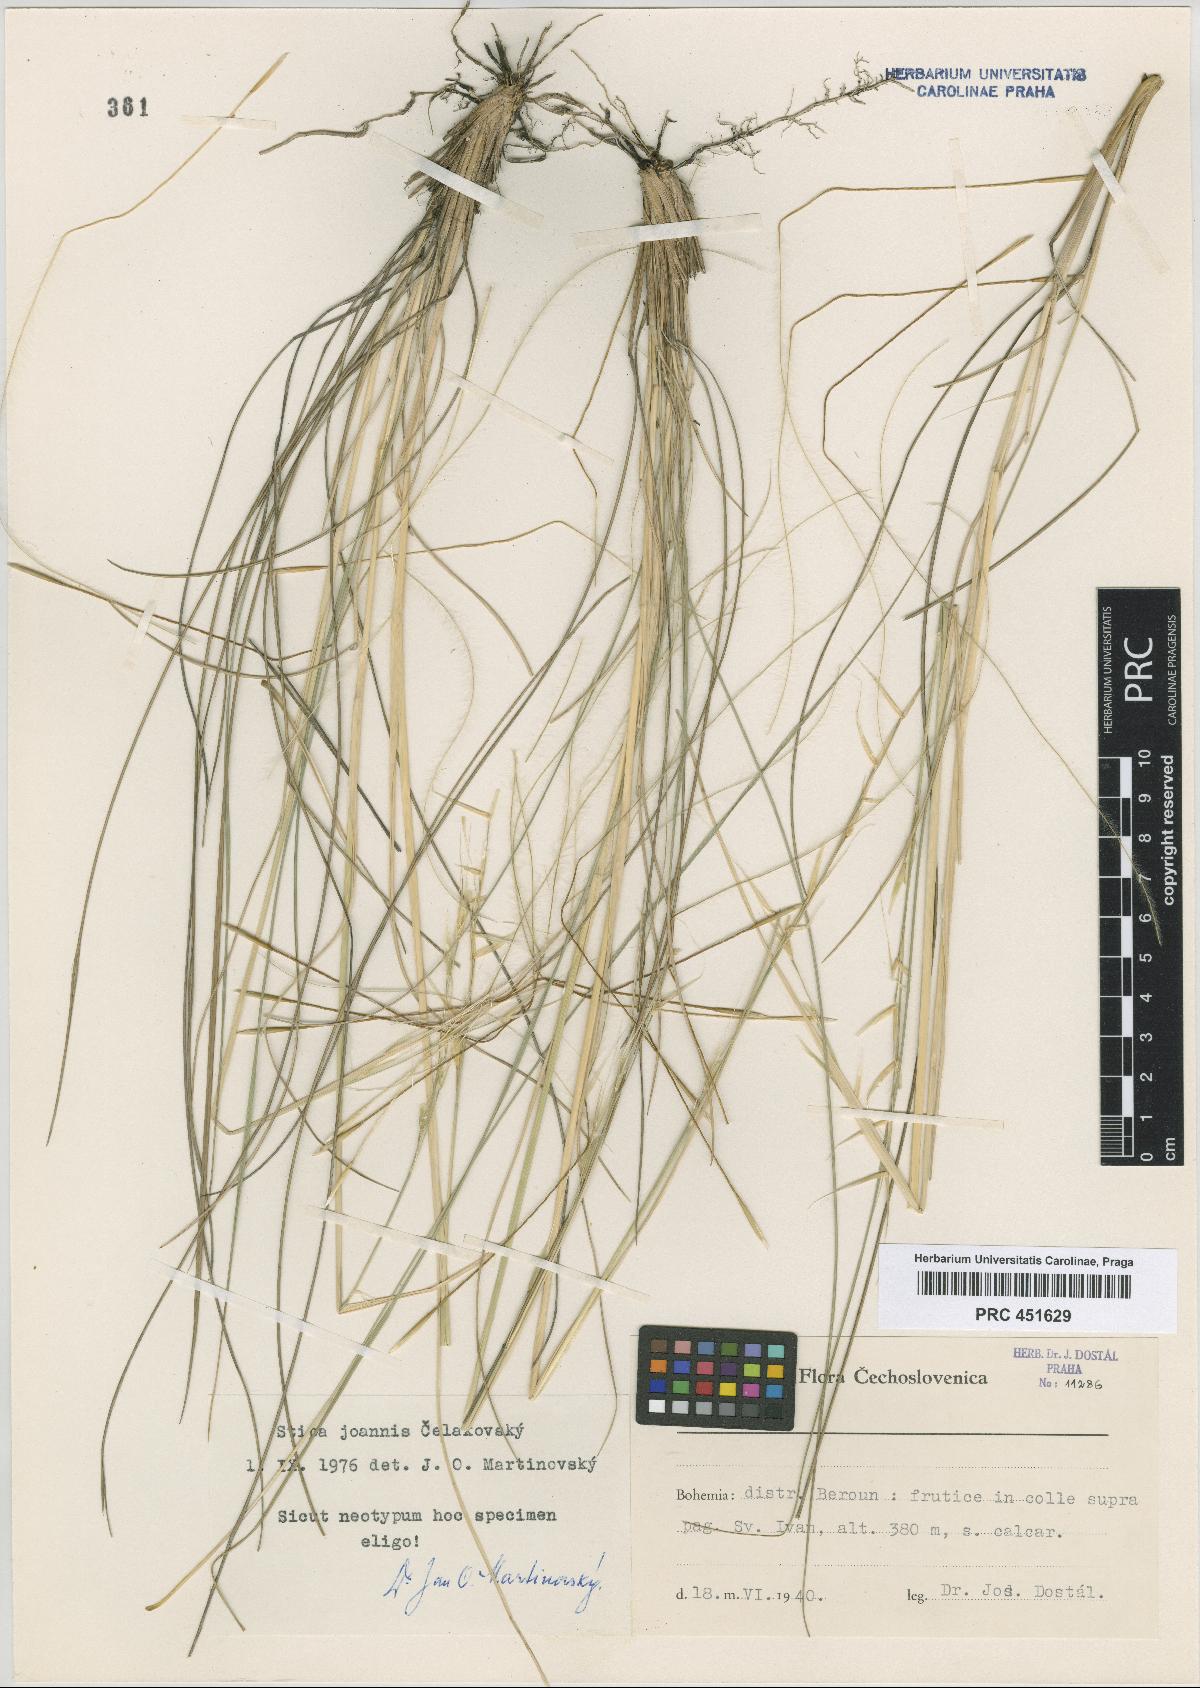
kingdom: Plantae
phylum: Tracheophyta
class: Liliopsida
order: Poales
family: Poaceae
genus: Stipa
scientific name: Stipa pennata
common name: European feather grass
